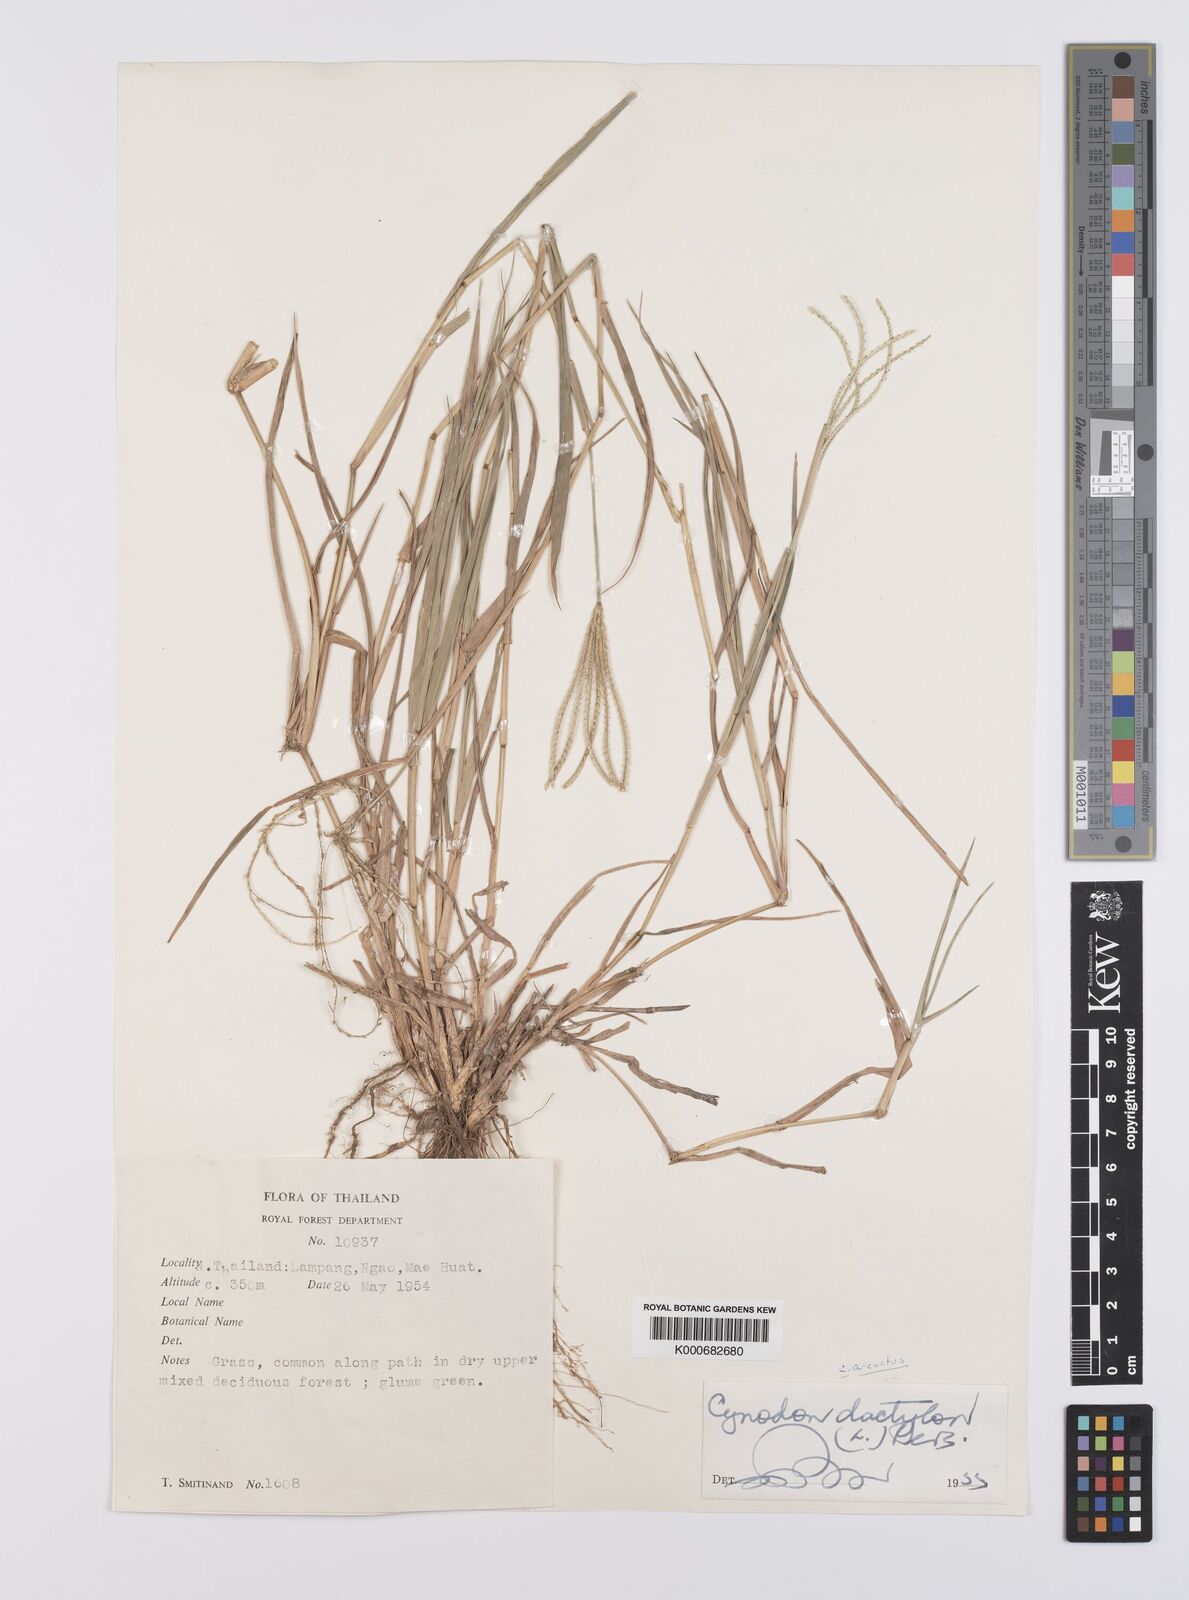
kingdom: Plantae
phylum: Tracheophyta
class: Liliopsida
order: Poales
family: Poaceae
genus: Cynodon
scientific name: Cynodon dactylon
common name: Bermuda grass
